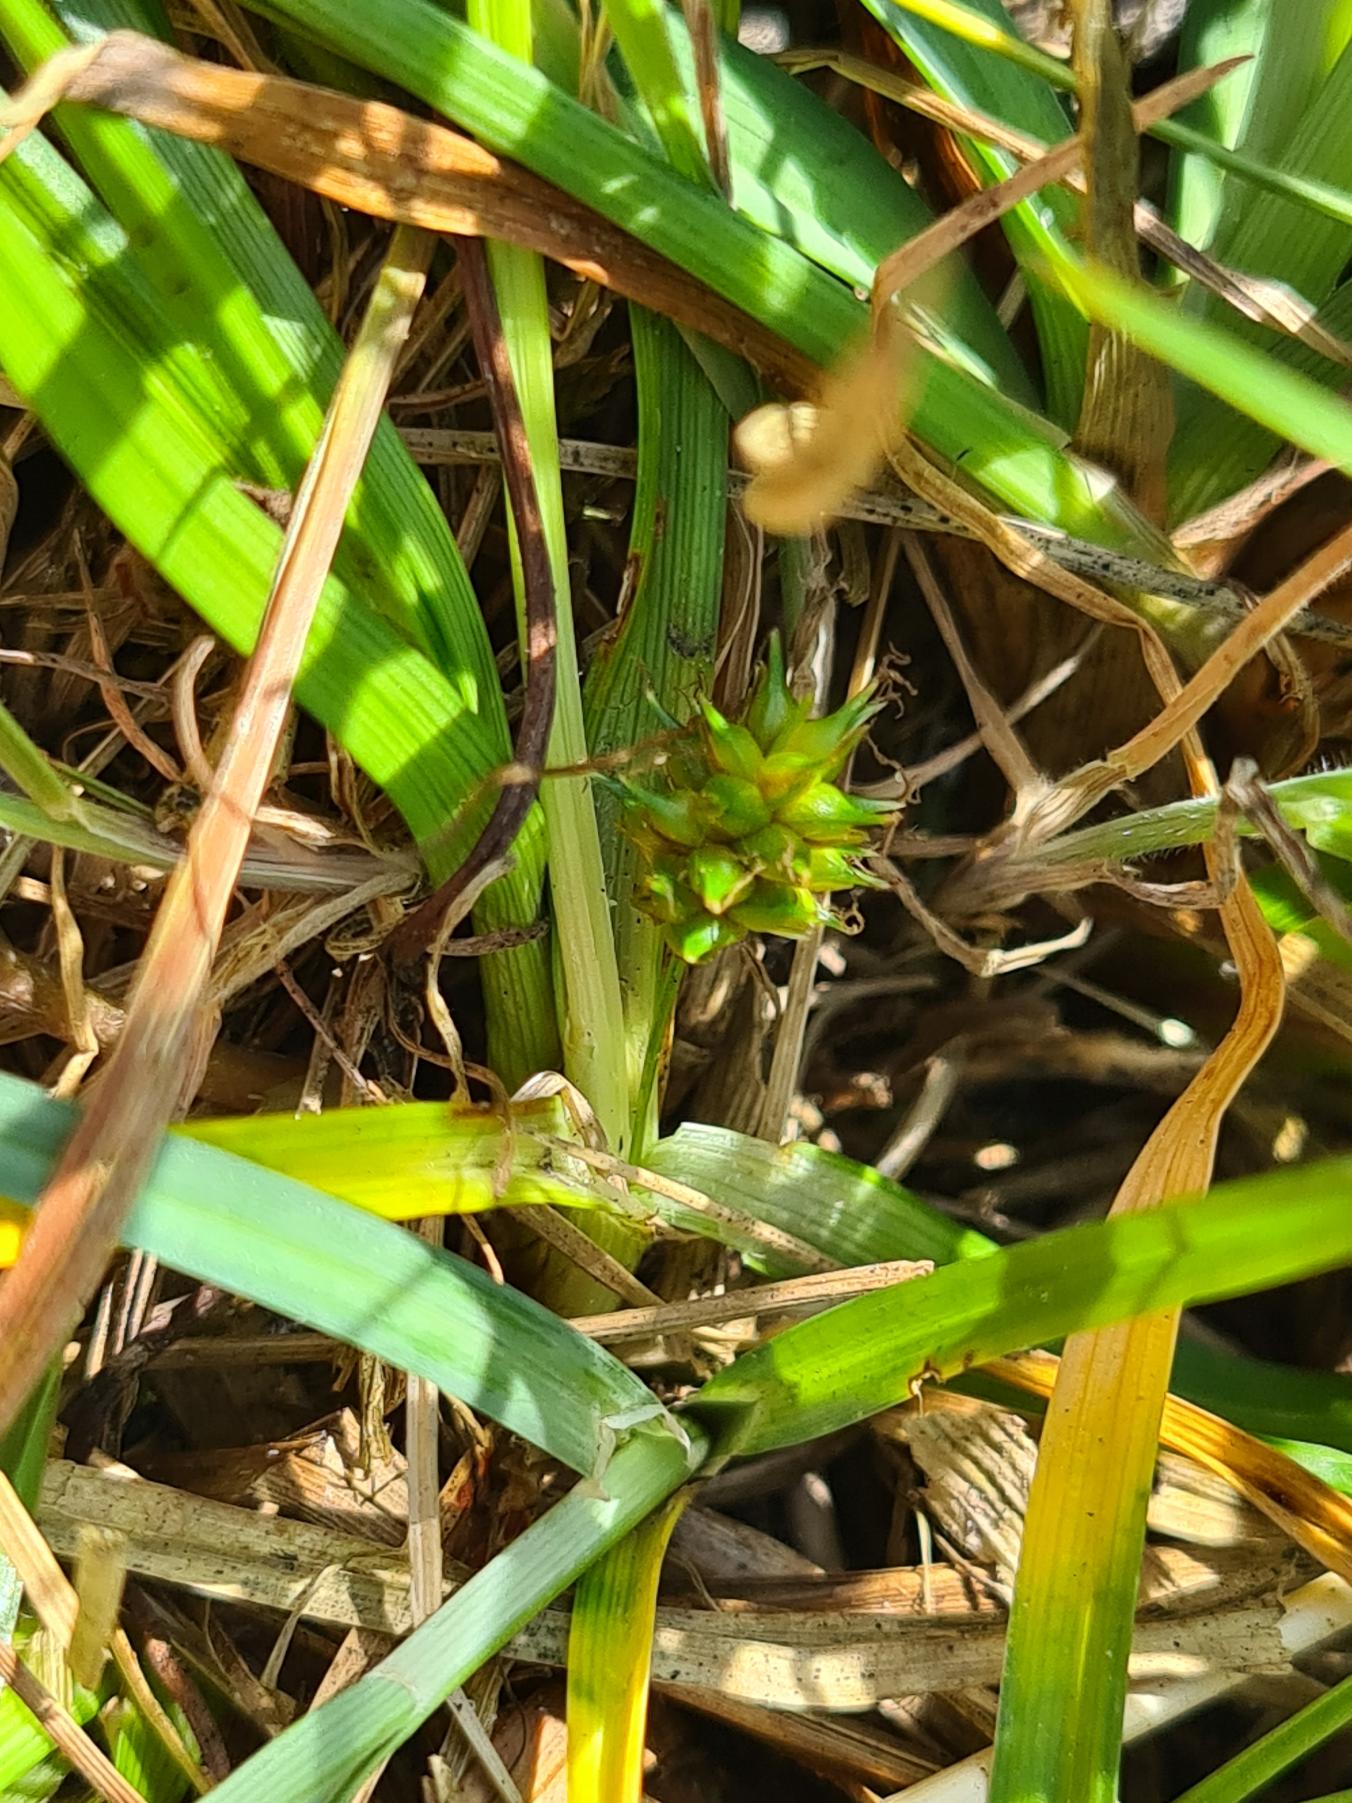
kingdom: Plantae
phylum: Tracheophyta
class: Liliopsida
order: Poales
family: Cyperaceae
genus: Carex
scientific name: Carex demissa
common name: Grøn star
